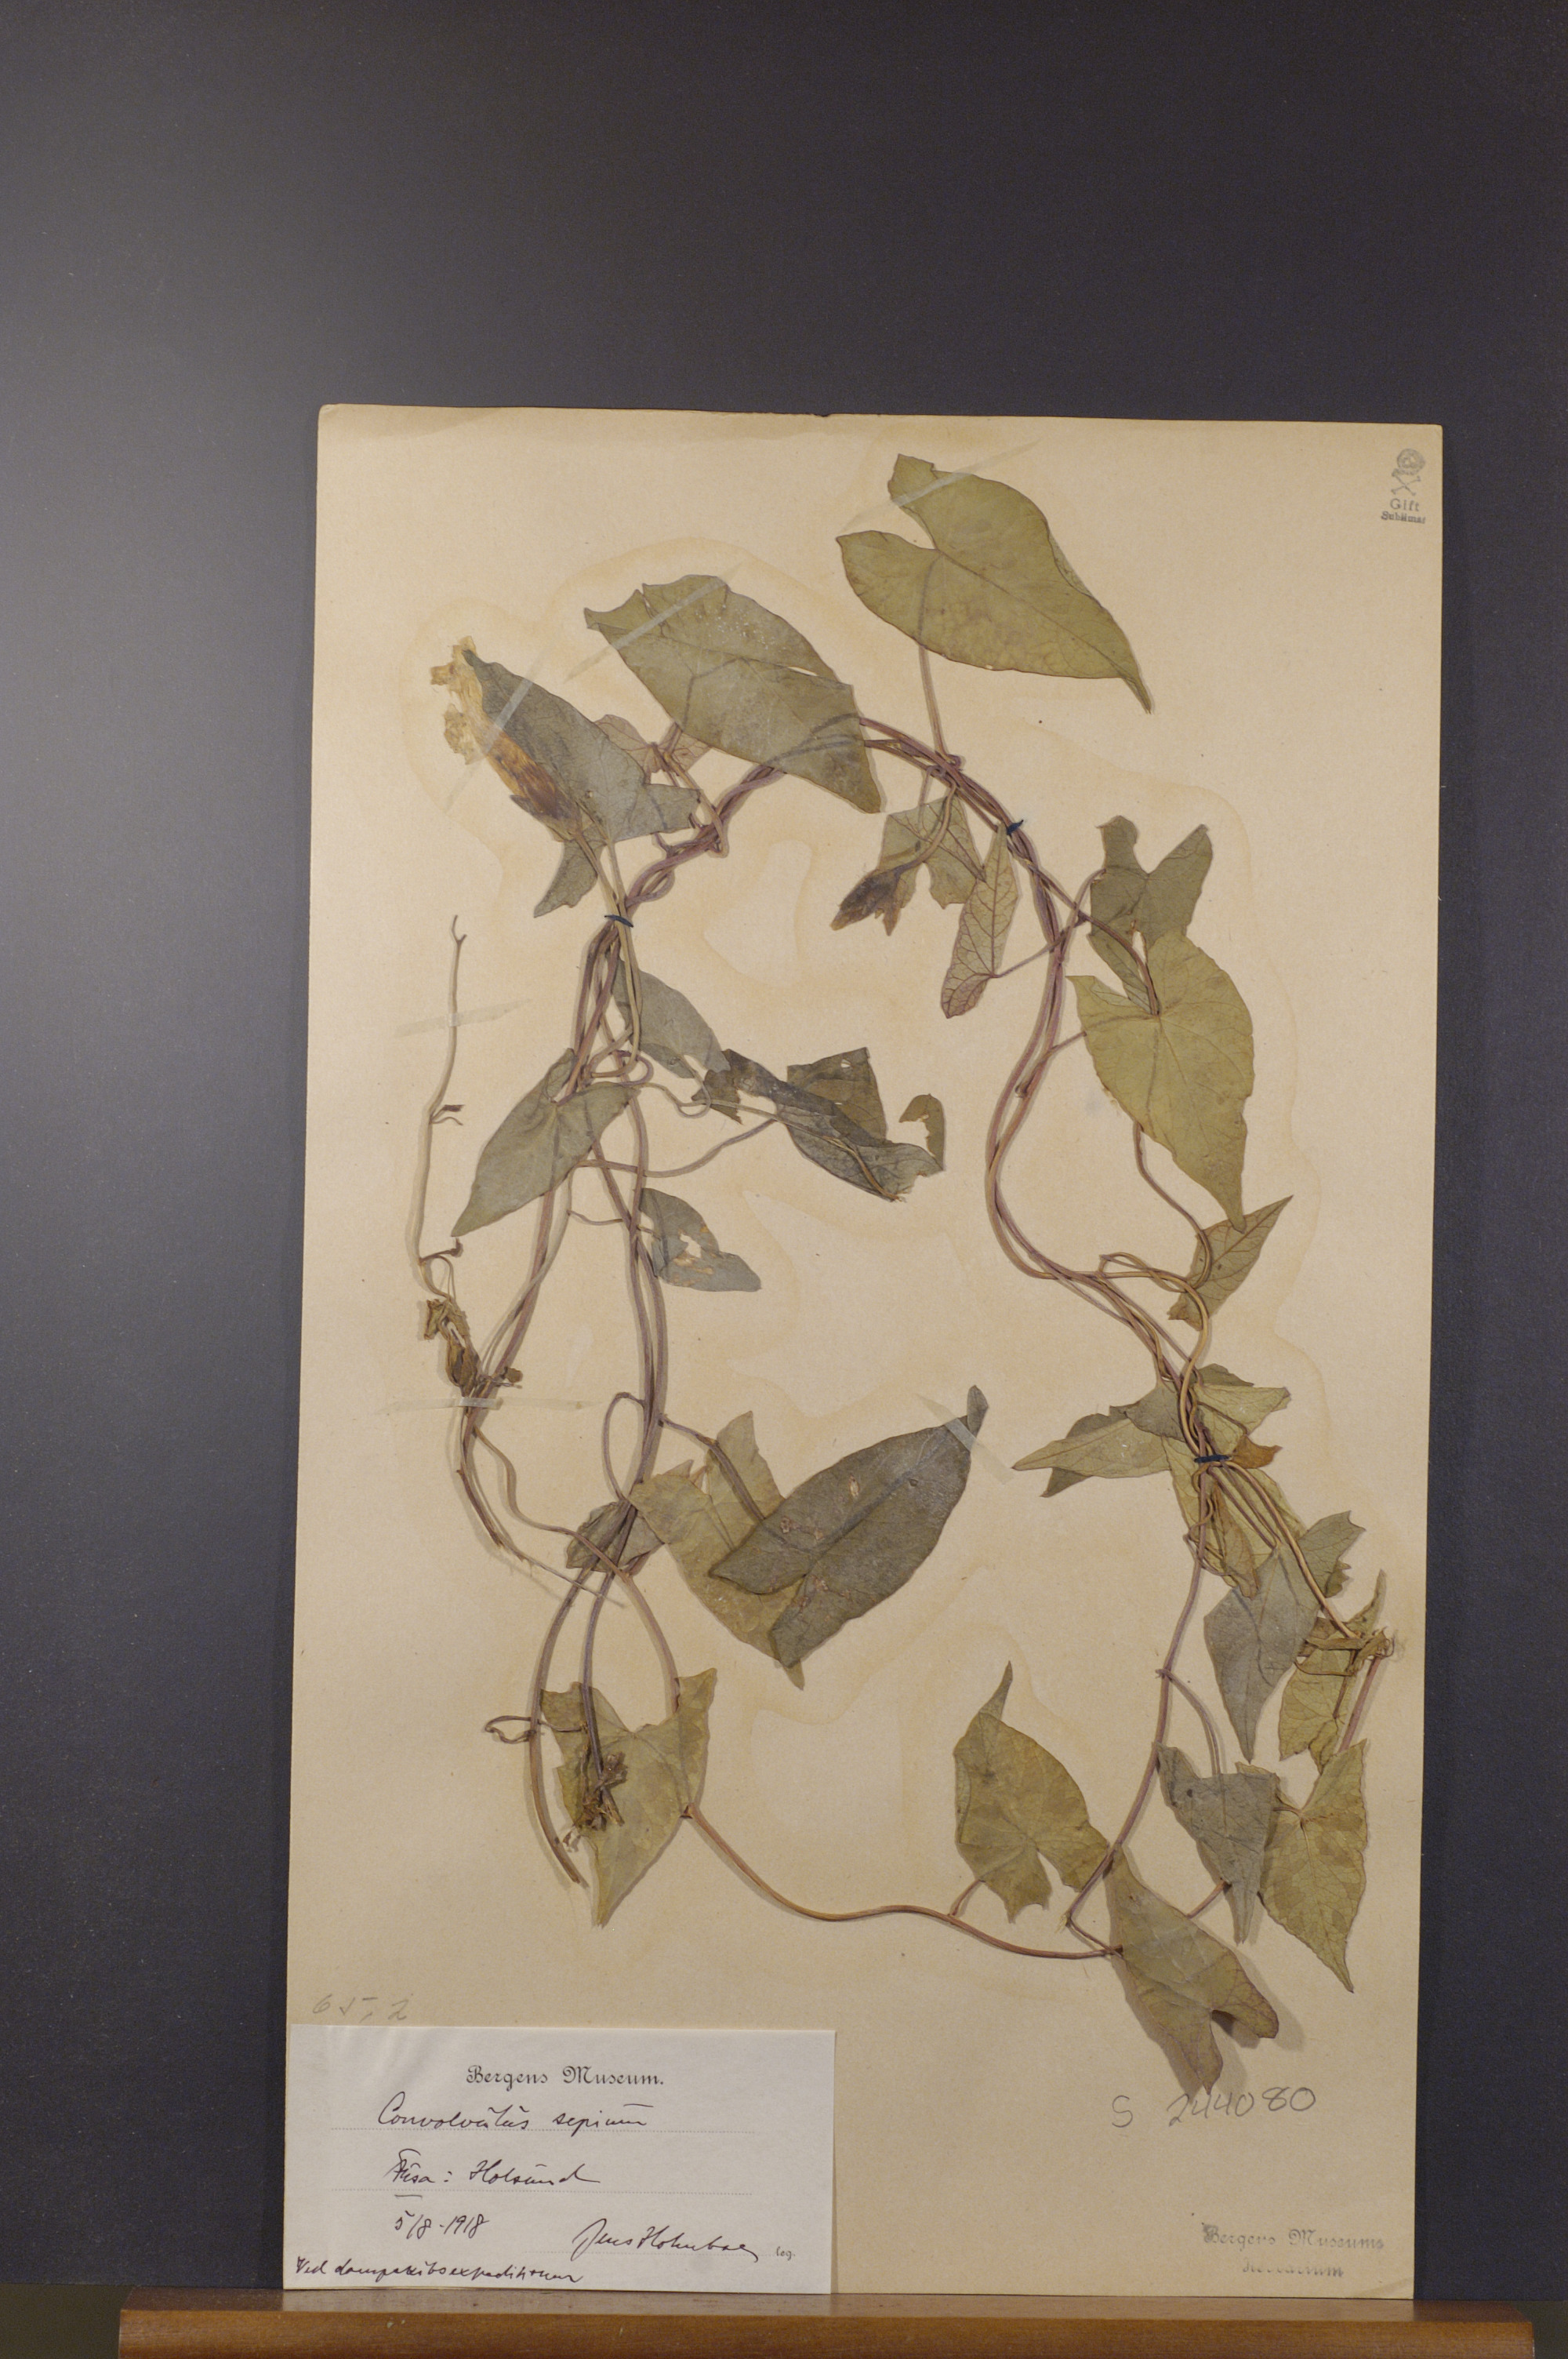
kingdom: Plantae
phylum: Tracheophyta
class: Magnoliopsida
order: Solanales
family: Convolvulaceae
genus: Calystegia
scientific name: Calystegia sepium
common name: Hedge bindweed
